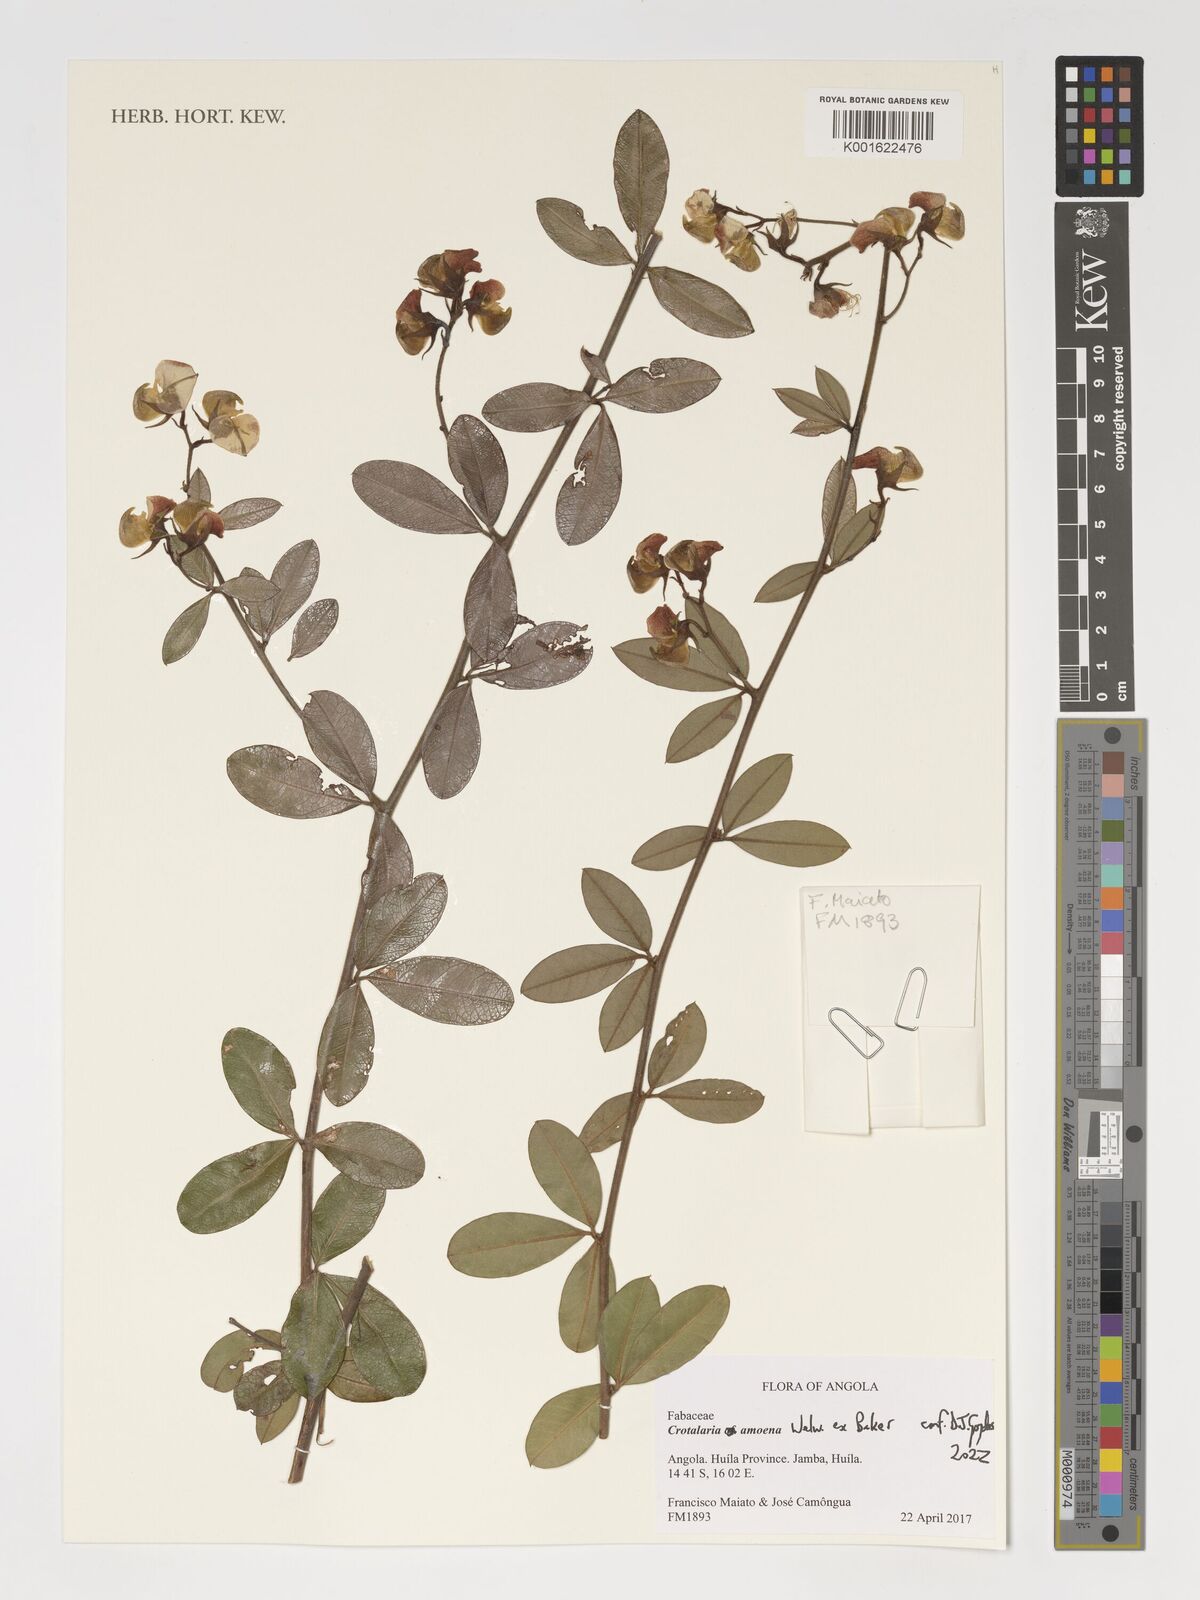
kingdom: Plantae
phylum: Tracheophyta
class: Magnoliopsida
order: Fabales
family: Fabaceae
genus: Crotalaria
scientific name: Crotalaria amoena
